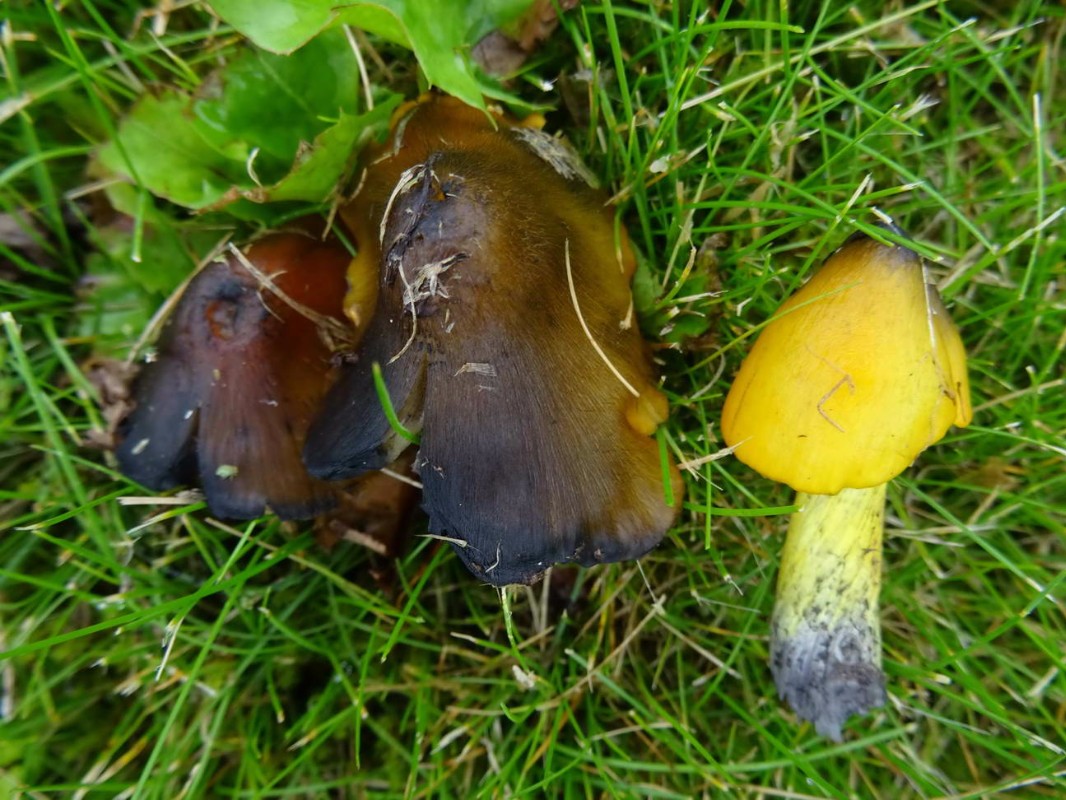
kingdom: Fungi
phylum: Basidiomycota
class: Agaricomycetes
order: Agaricales
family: Hygrophoraceae
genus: Hygrocybe
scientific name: Hygrocybe conica
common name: kegle-vokshat
